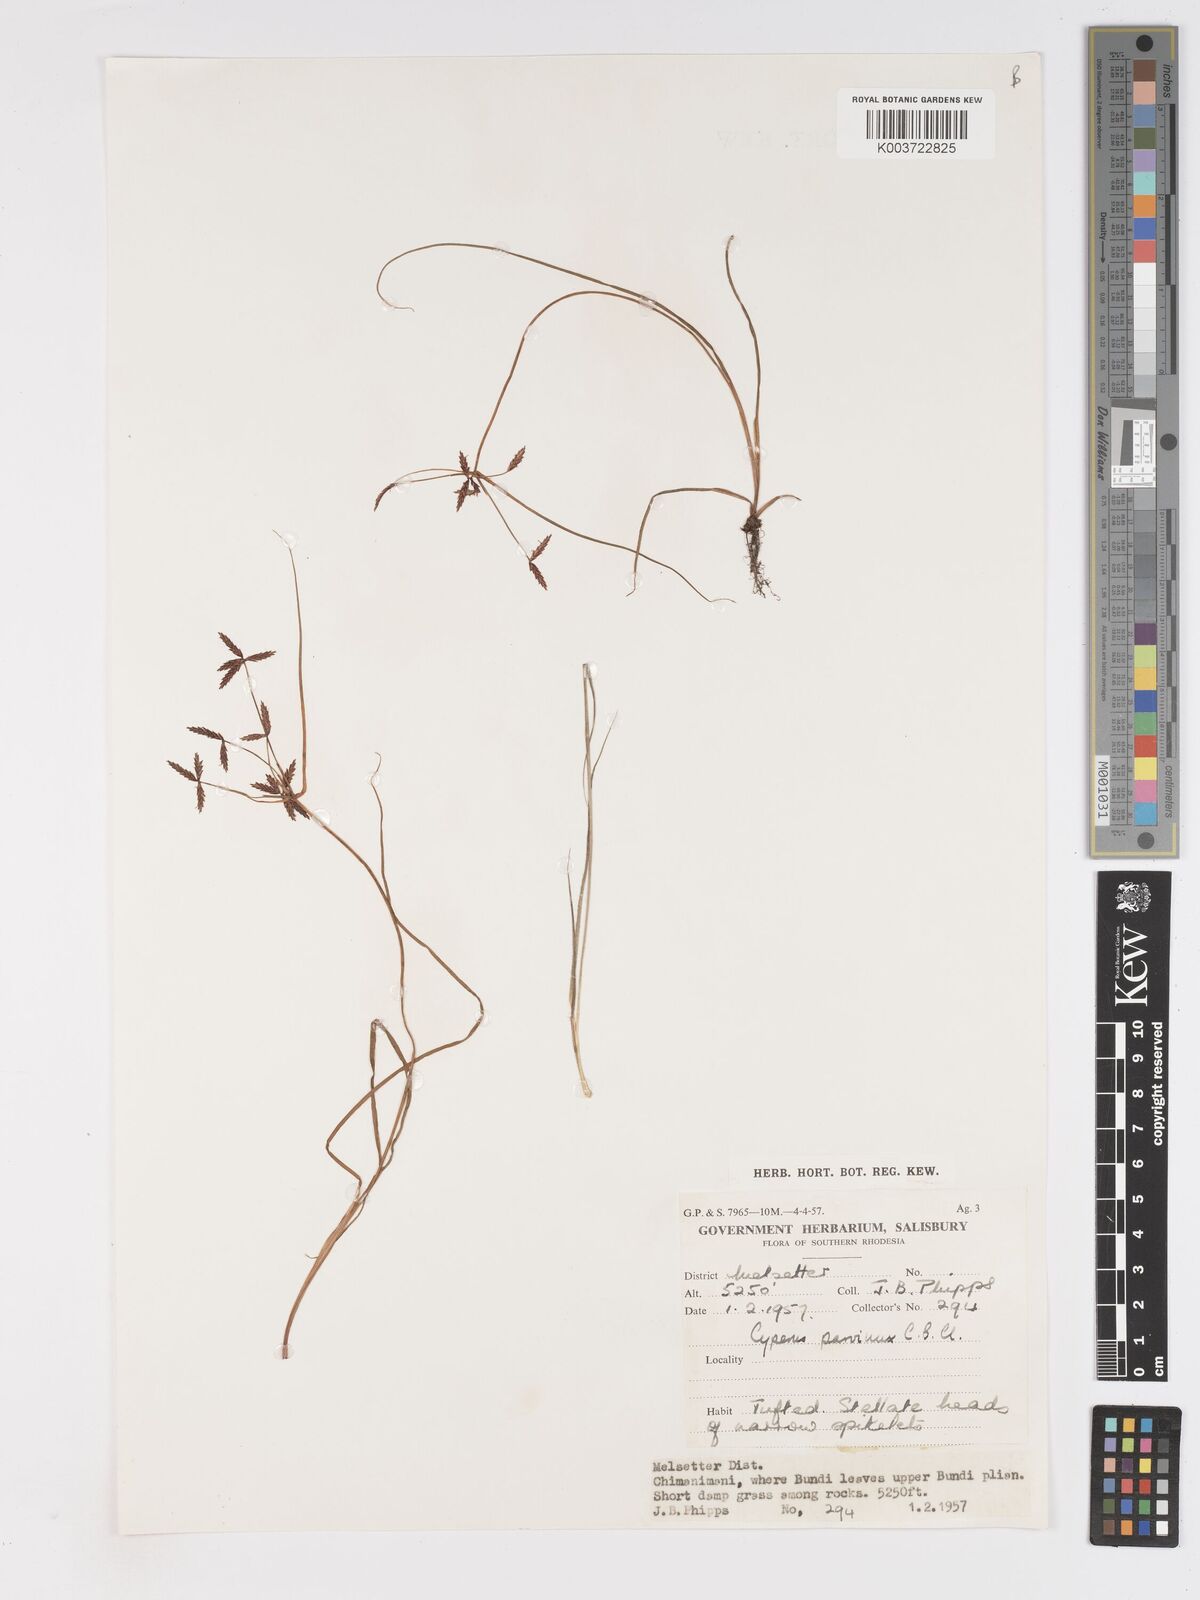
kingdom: Plantae
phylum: Tracheophyta
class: Liliopsida
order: Poales
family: Cyperaceae
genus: Cyperus
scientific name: Cyperus glaucophyllus
